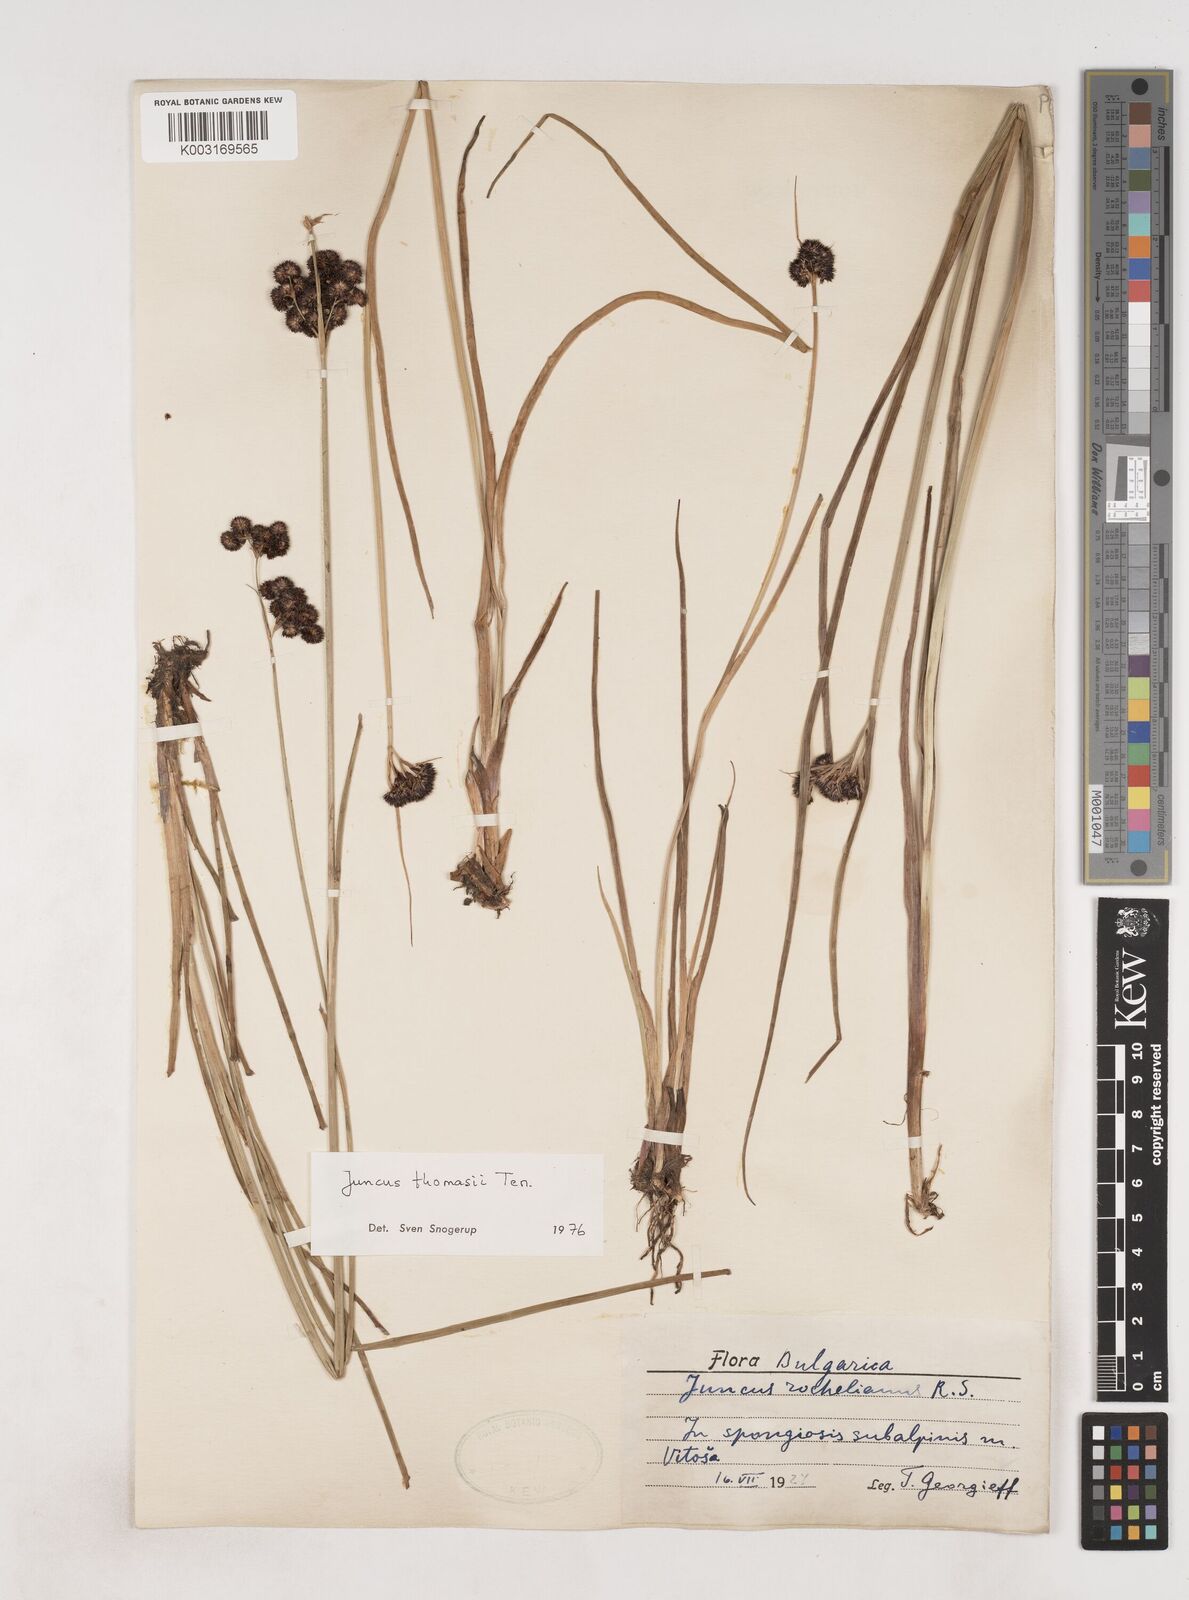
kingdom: Plantae
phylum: Tracheophyta
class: Liliopsida
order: Poales
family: Juncaceae
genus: Juncus
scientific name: Juncus alpigenus
